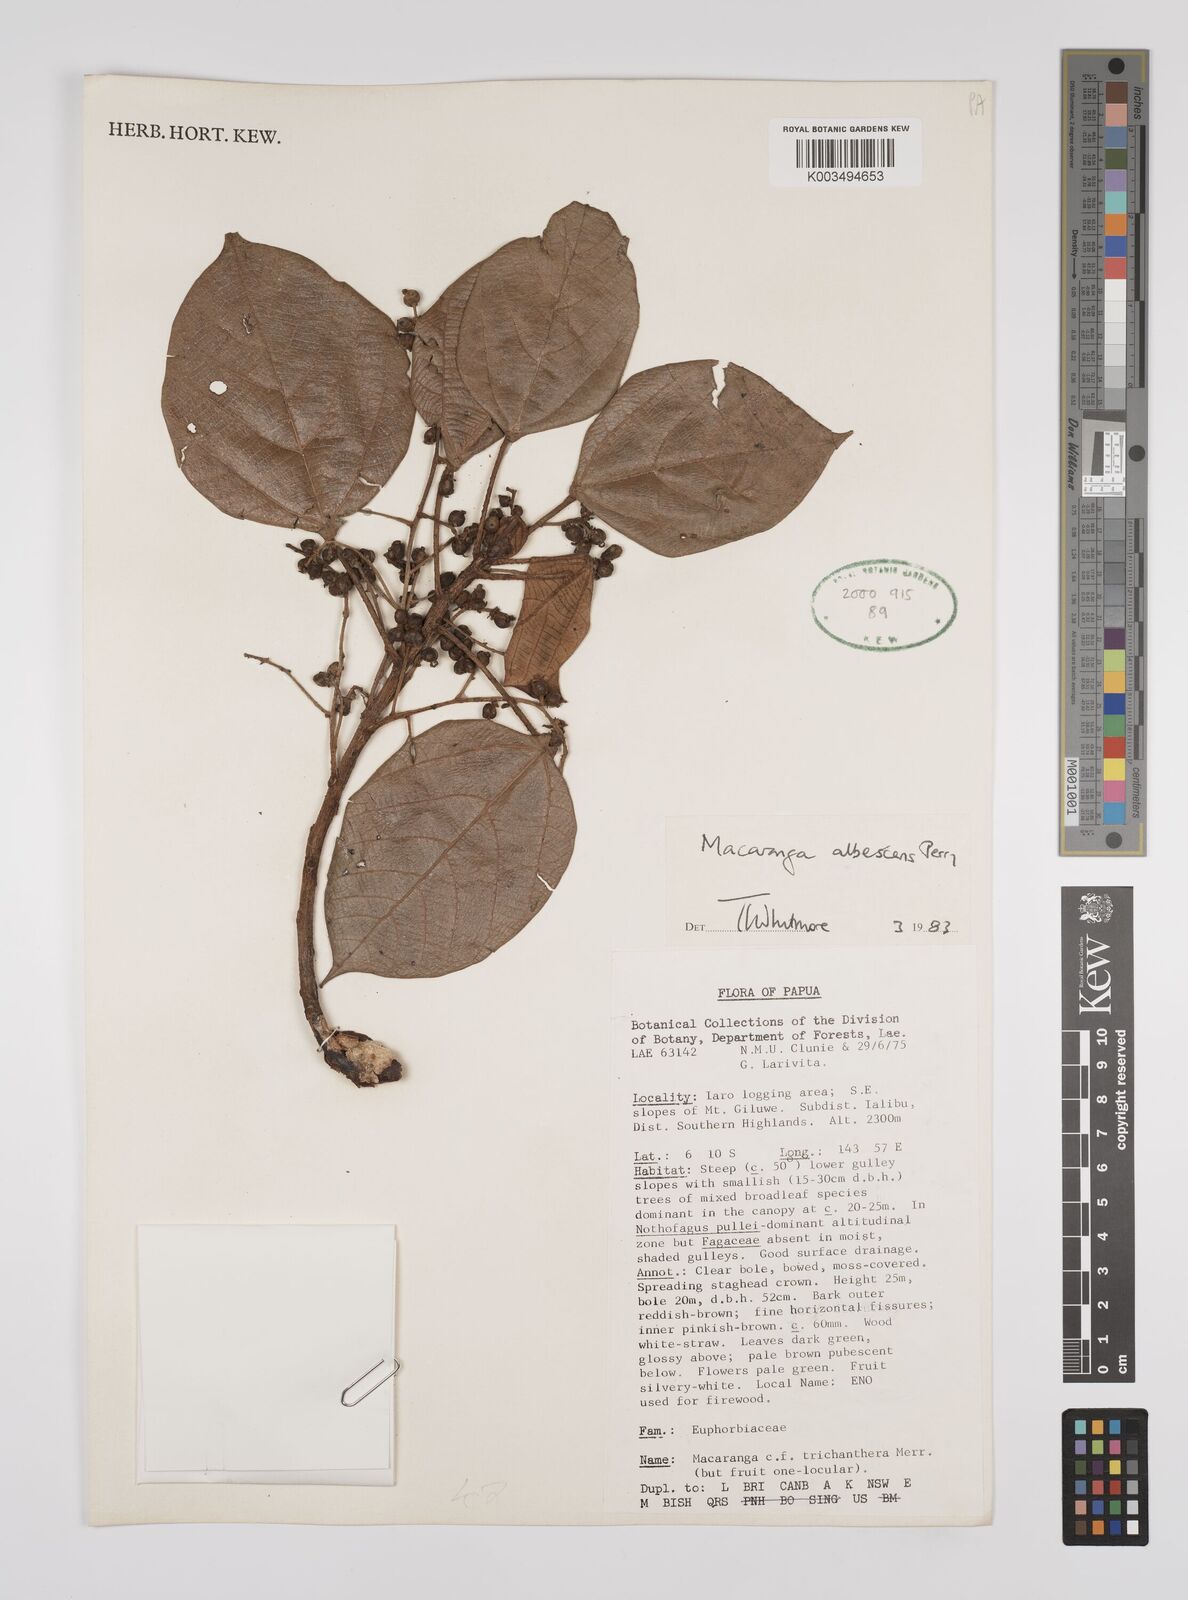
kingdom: Plantae
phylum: Tracheophyta
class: Magnoliopsida
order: Malpighiales
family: Euphorbiaceae
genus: Macaranga
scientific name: Macaranga albescens
